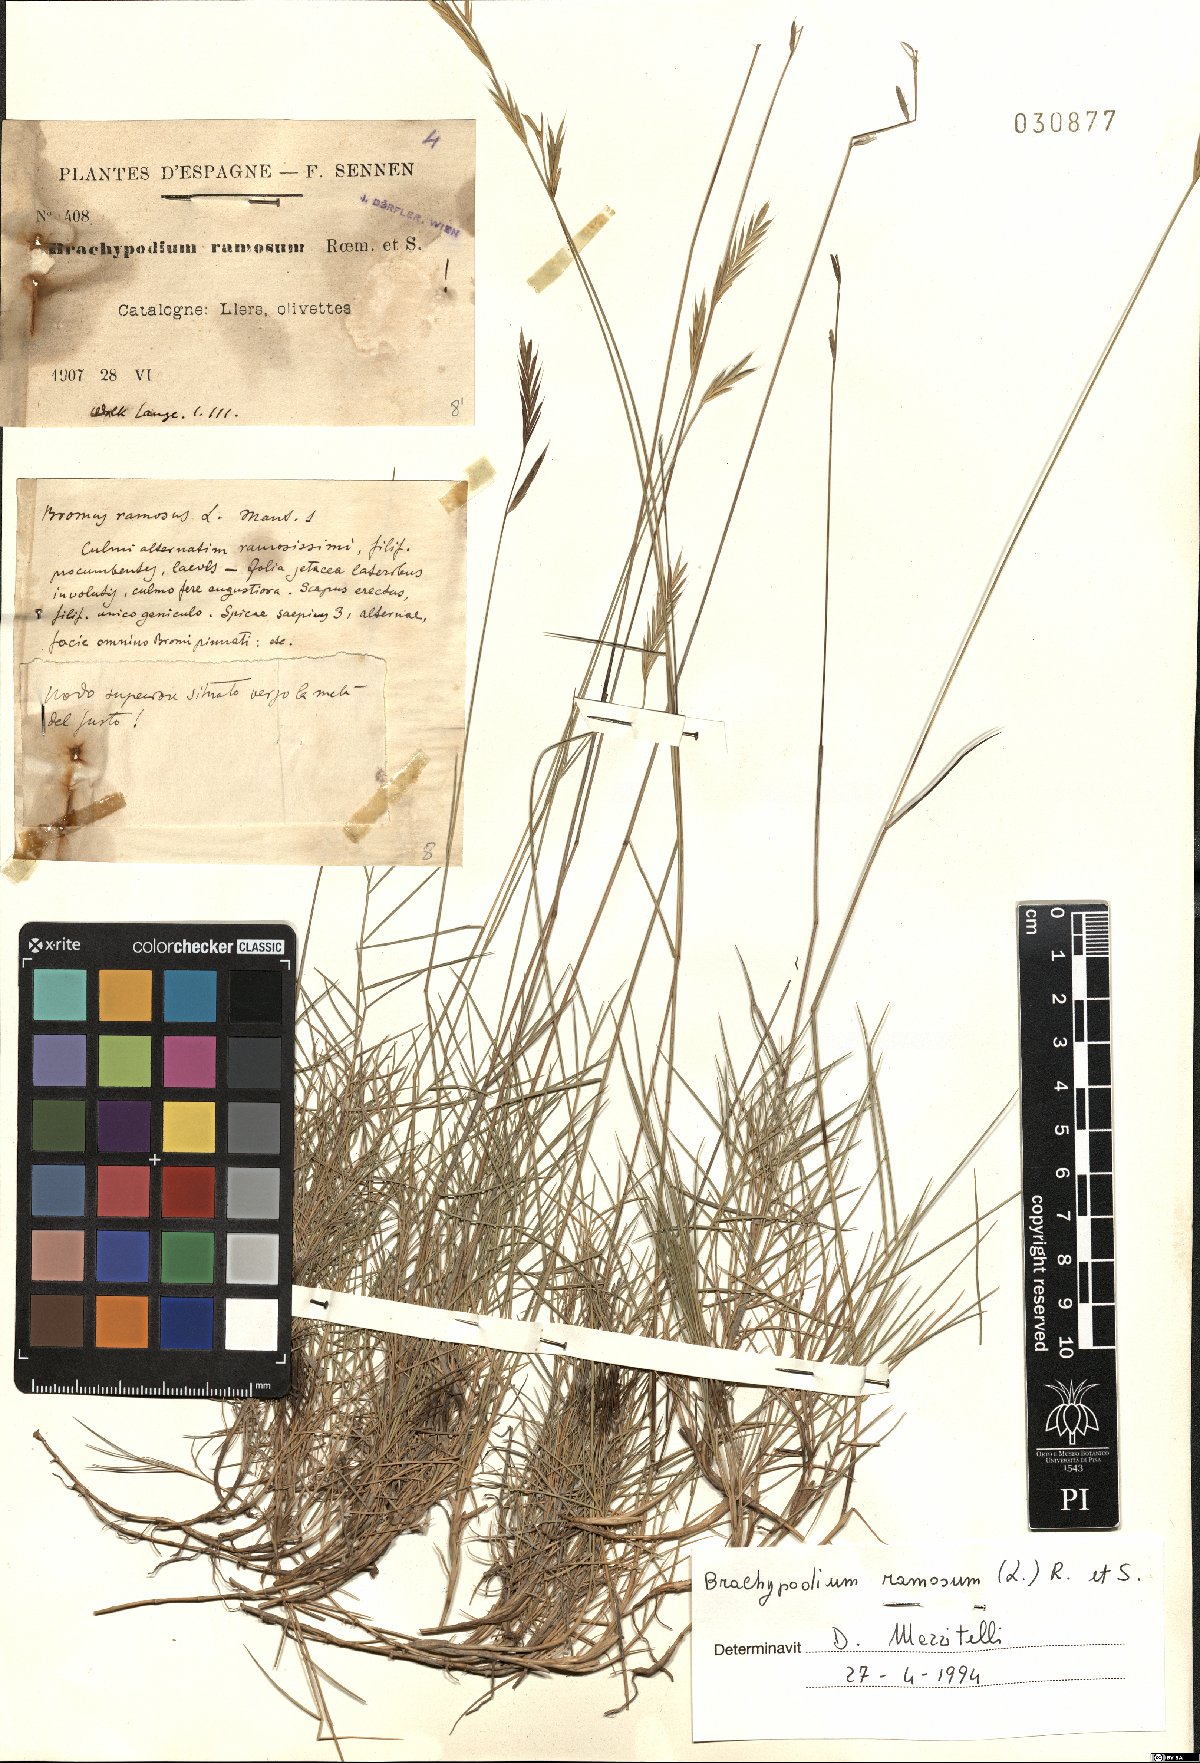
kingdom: Plantae
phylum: Tracheophyta
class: Liliopsida
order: Poales
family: Poaceae
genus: Brachypodium
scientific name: Brachypodium retusum
